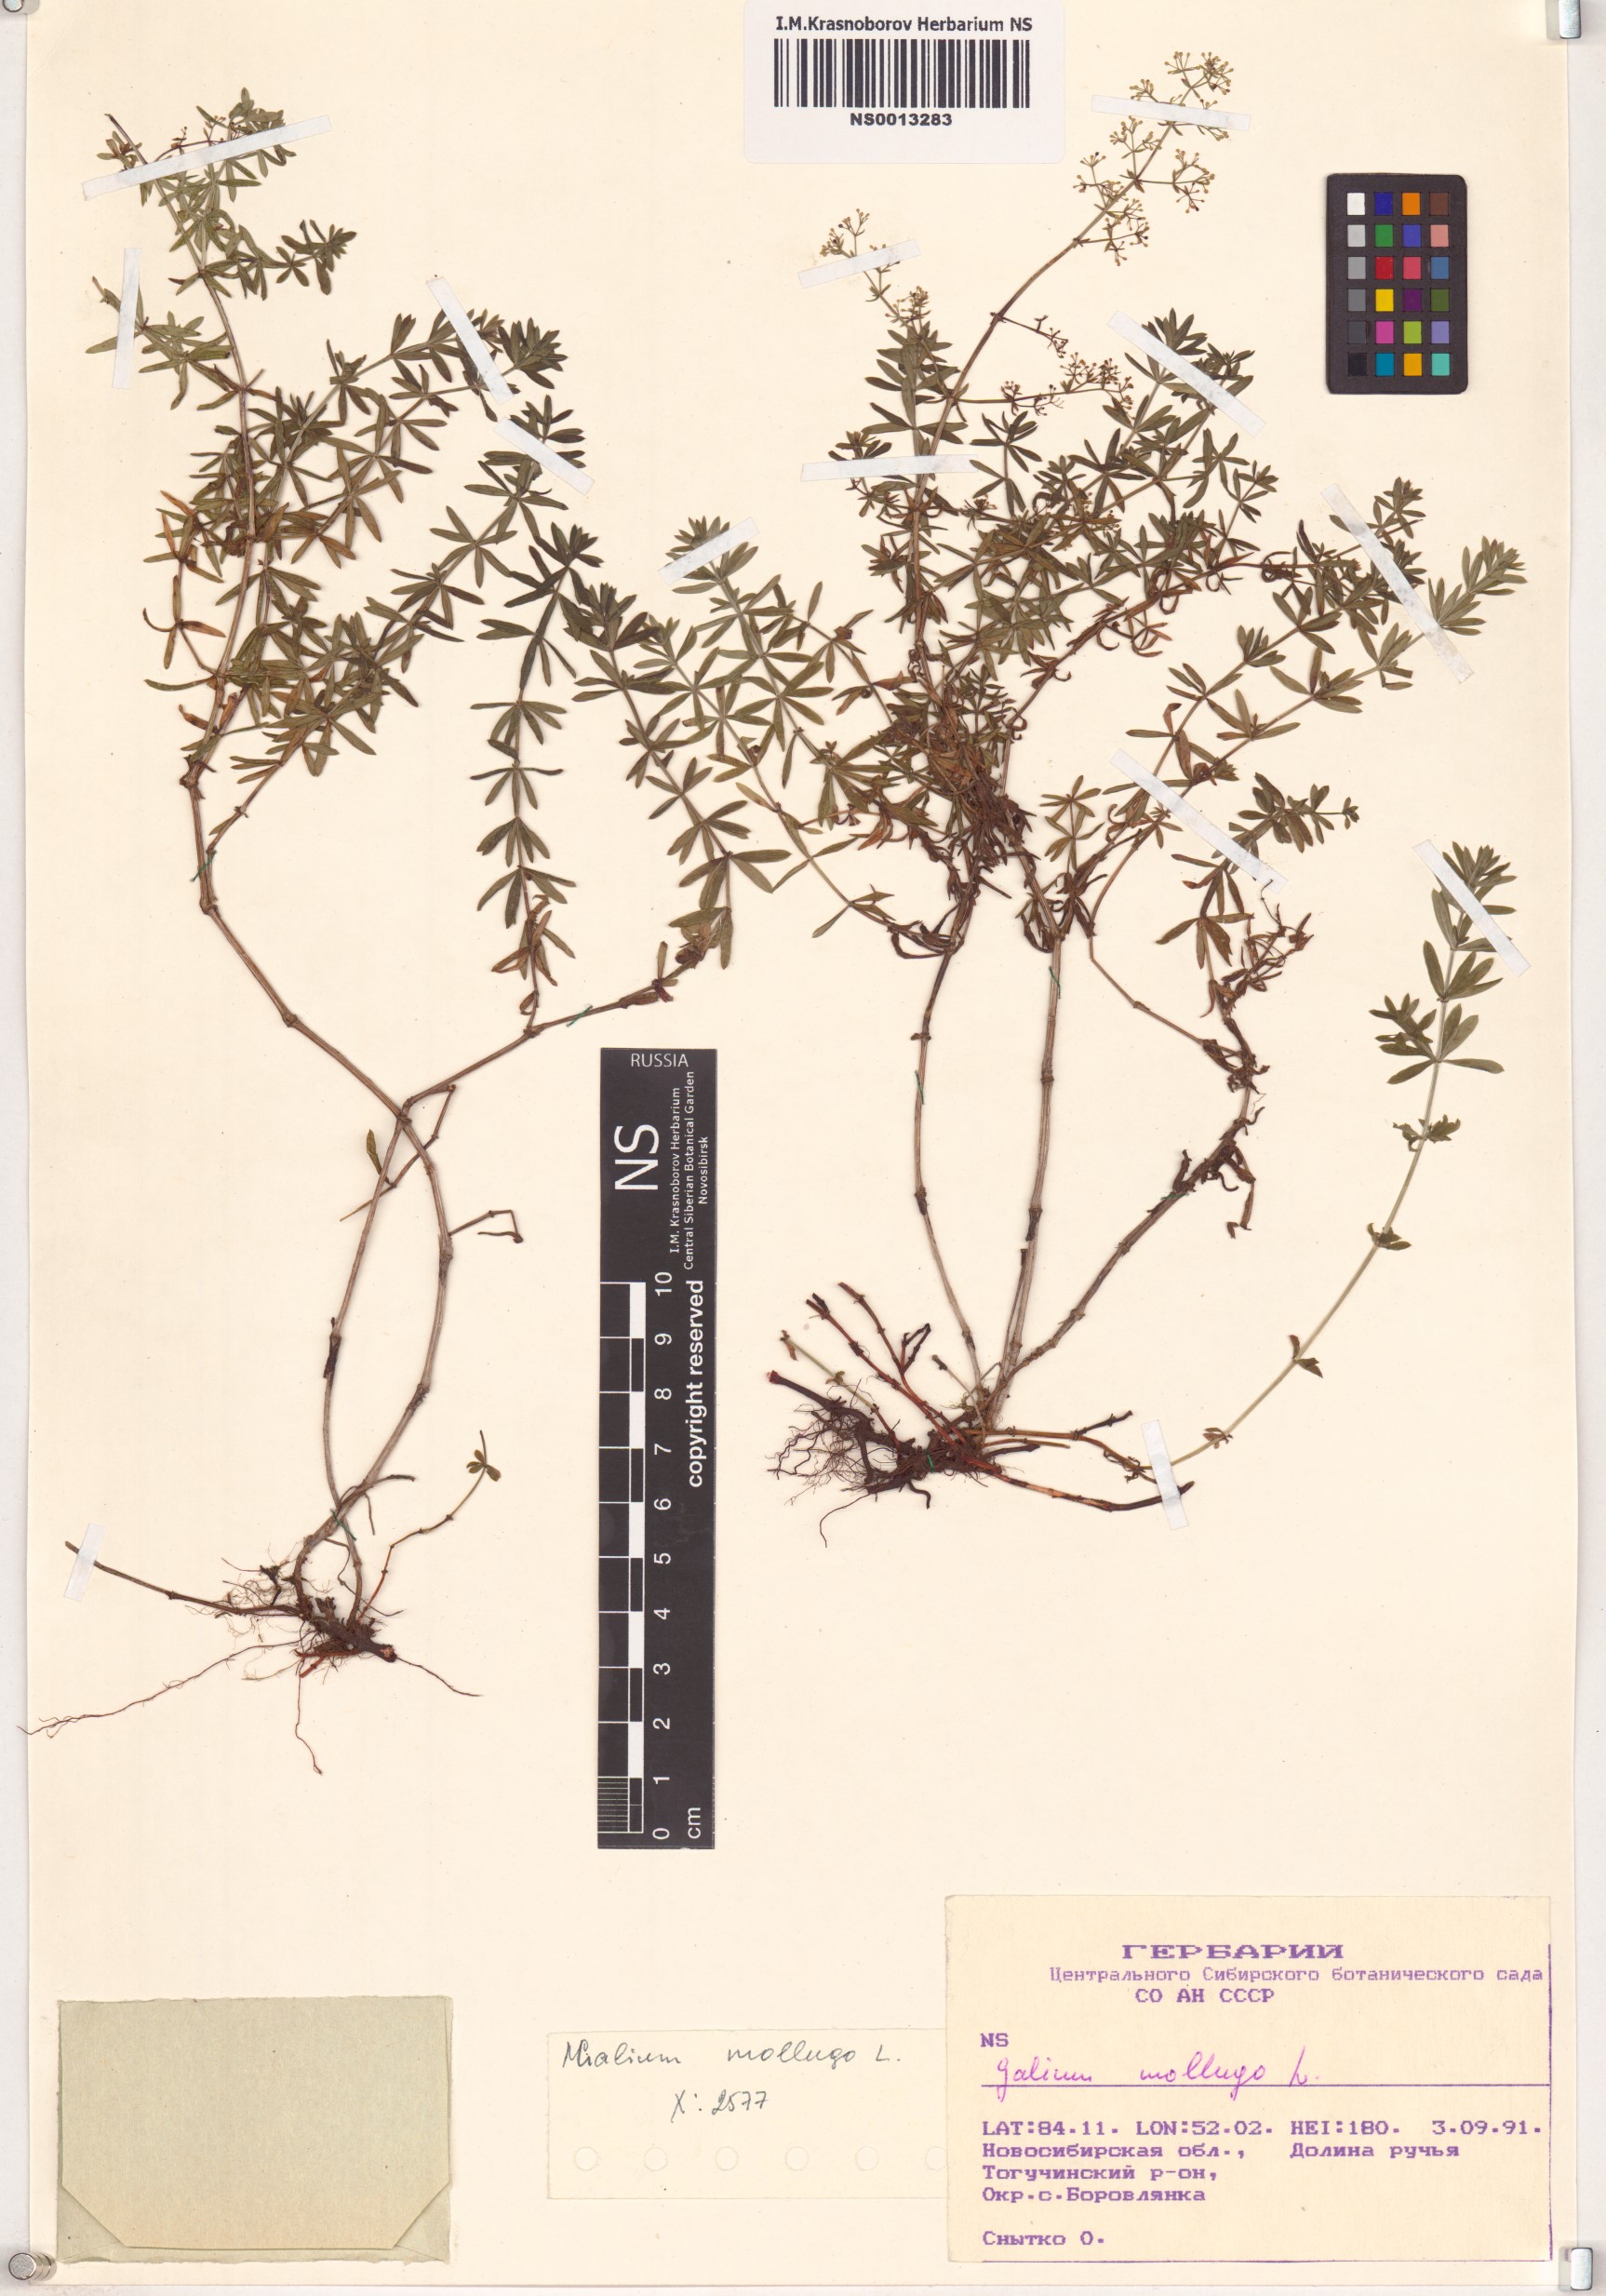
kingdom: Plantae
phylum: Tracheophyta
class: Magnoliopsida
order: Gentianales
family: Rubiaceae
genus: Galium
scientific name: Galium mollugo
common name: Hedge bedstraw
